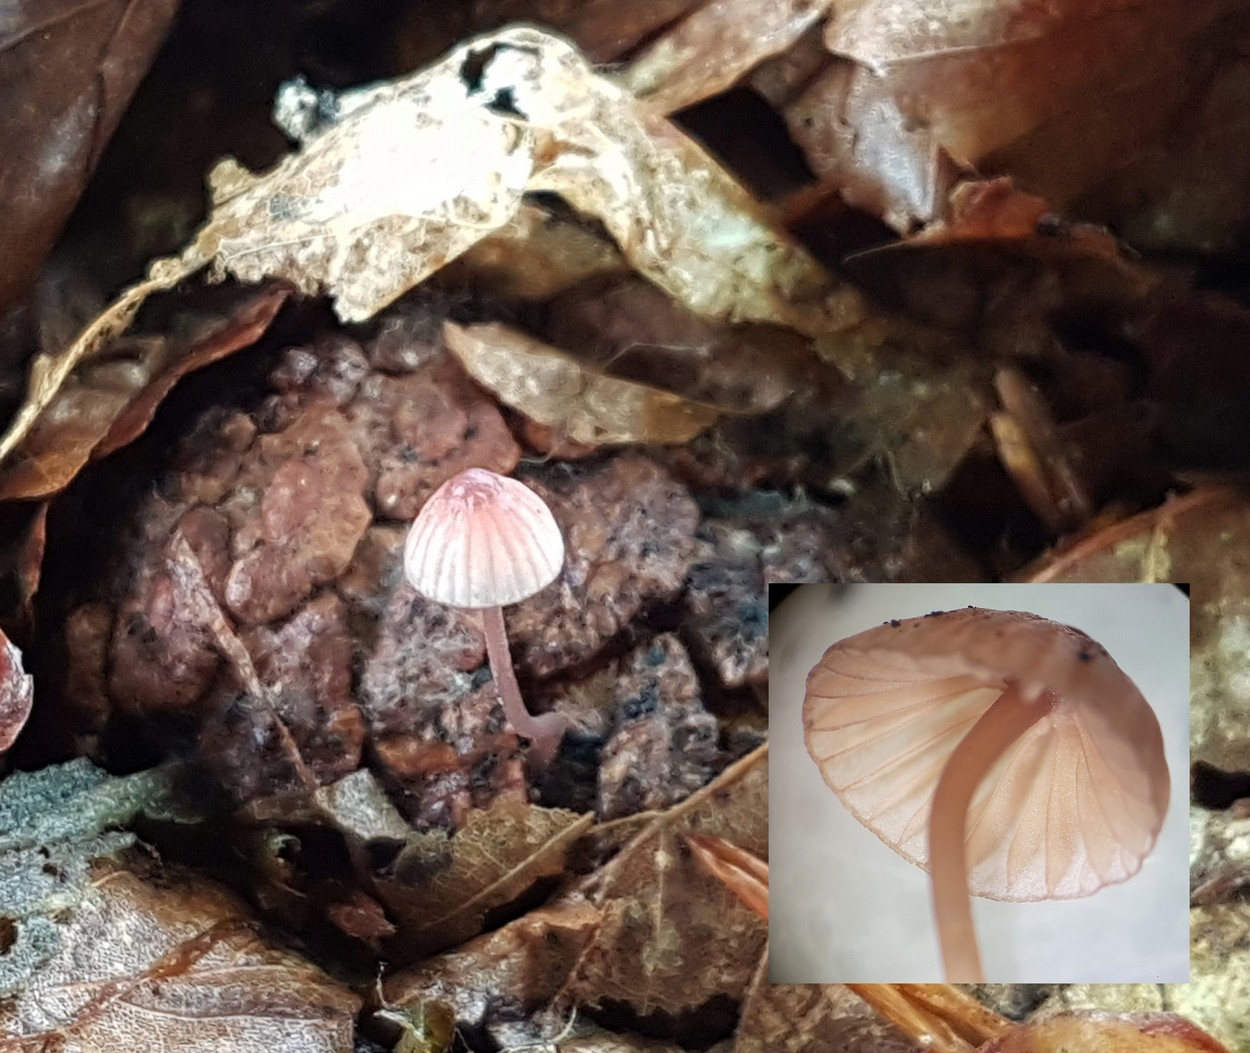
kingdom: Fungi
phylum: Basidiomycota
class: Agaricomycetes
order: Agaricales
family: Mycenaceae
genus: Mycena
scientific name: Mycena sanguinolenta
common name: rødmælket huesvamp
